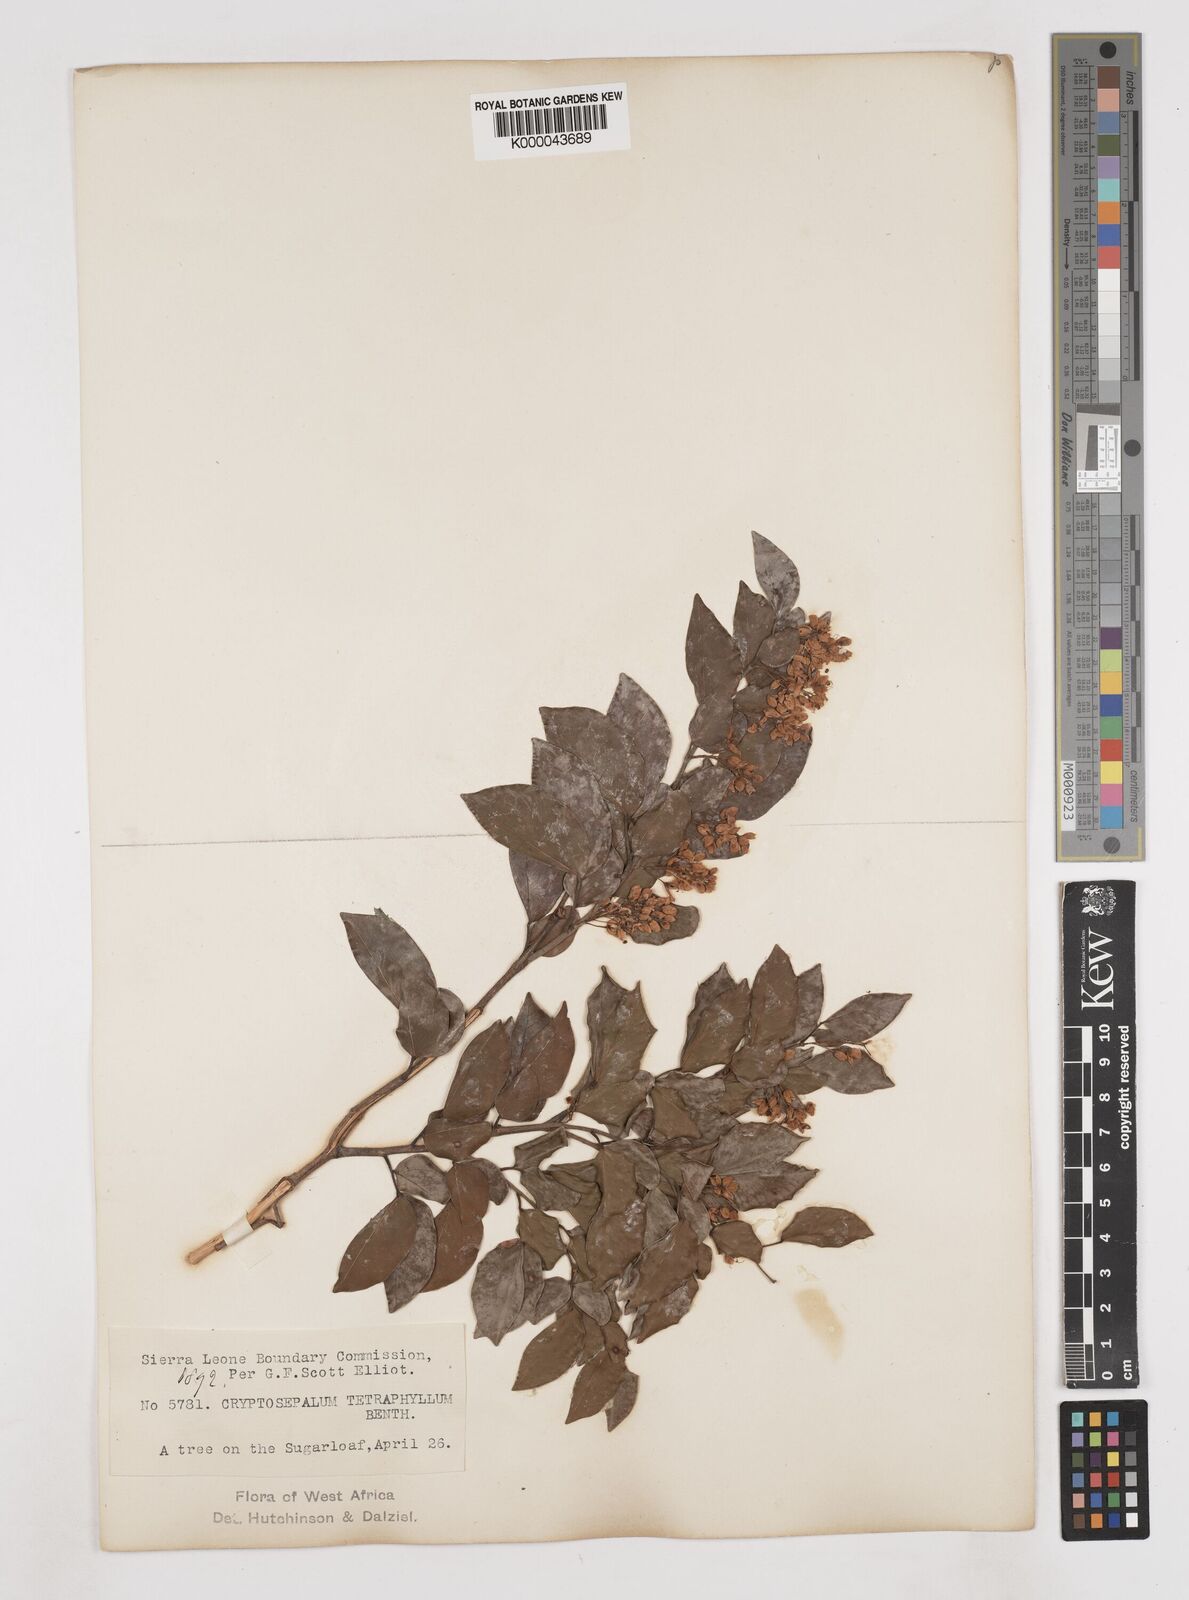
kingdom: Plantae
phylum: Tracheophyta
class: Magnoliopsida
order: Fabales
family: Fabaceae
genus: Cryptosepalum
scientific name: Cryptosepalum tetraphyllum
